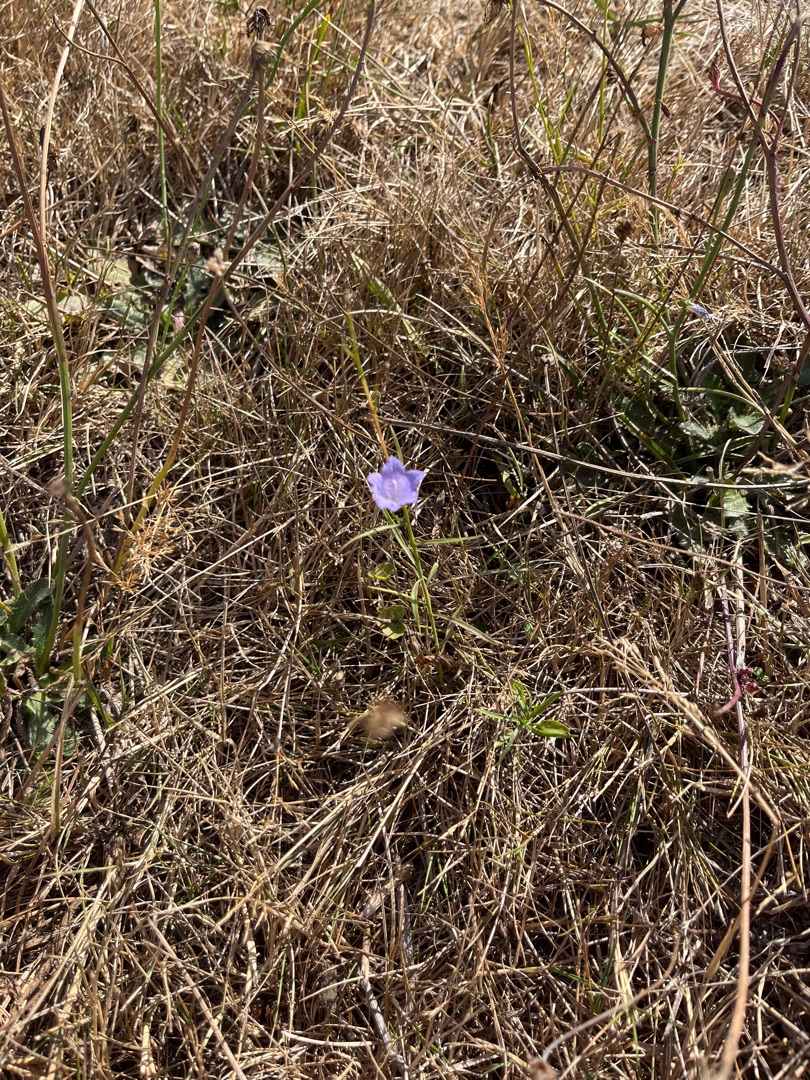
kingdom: Plantae
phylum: Tracheophyta
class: Magnoliopsida
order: Asterales
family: Campanulaceae
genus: Campanula
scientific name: Campanula rotundifolia
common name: Liden klokke
